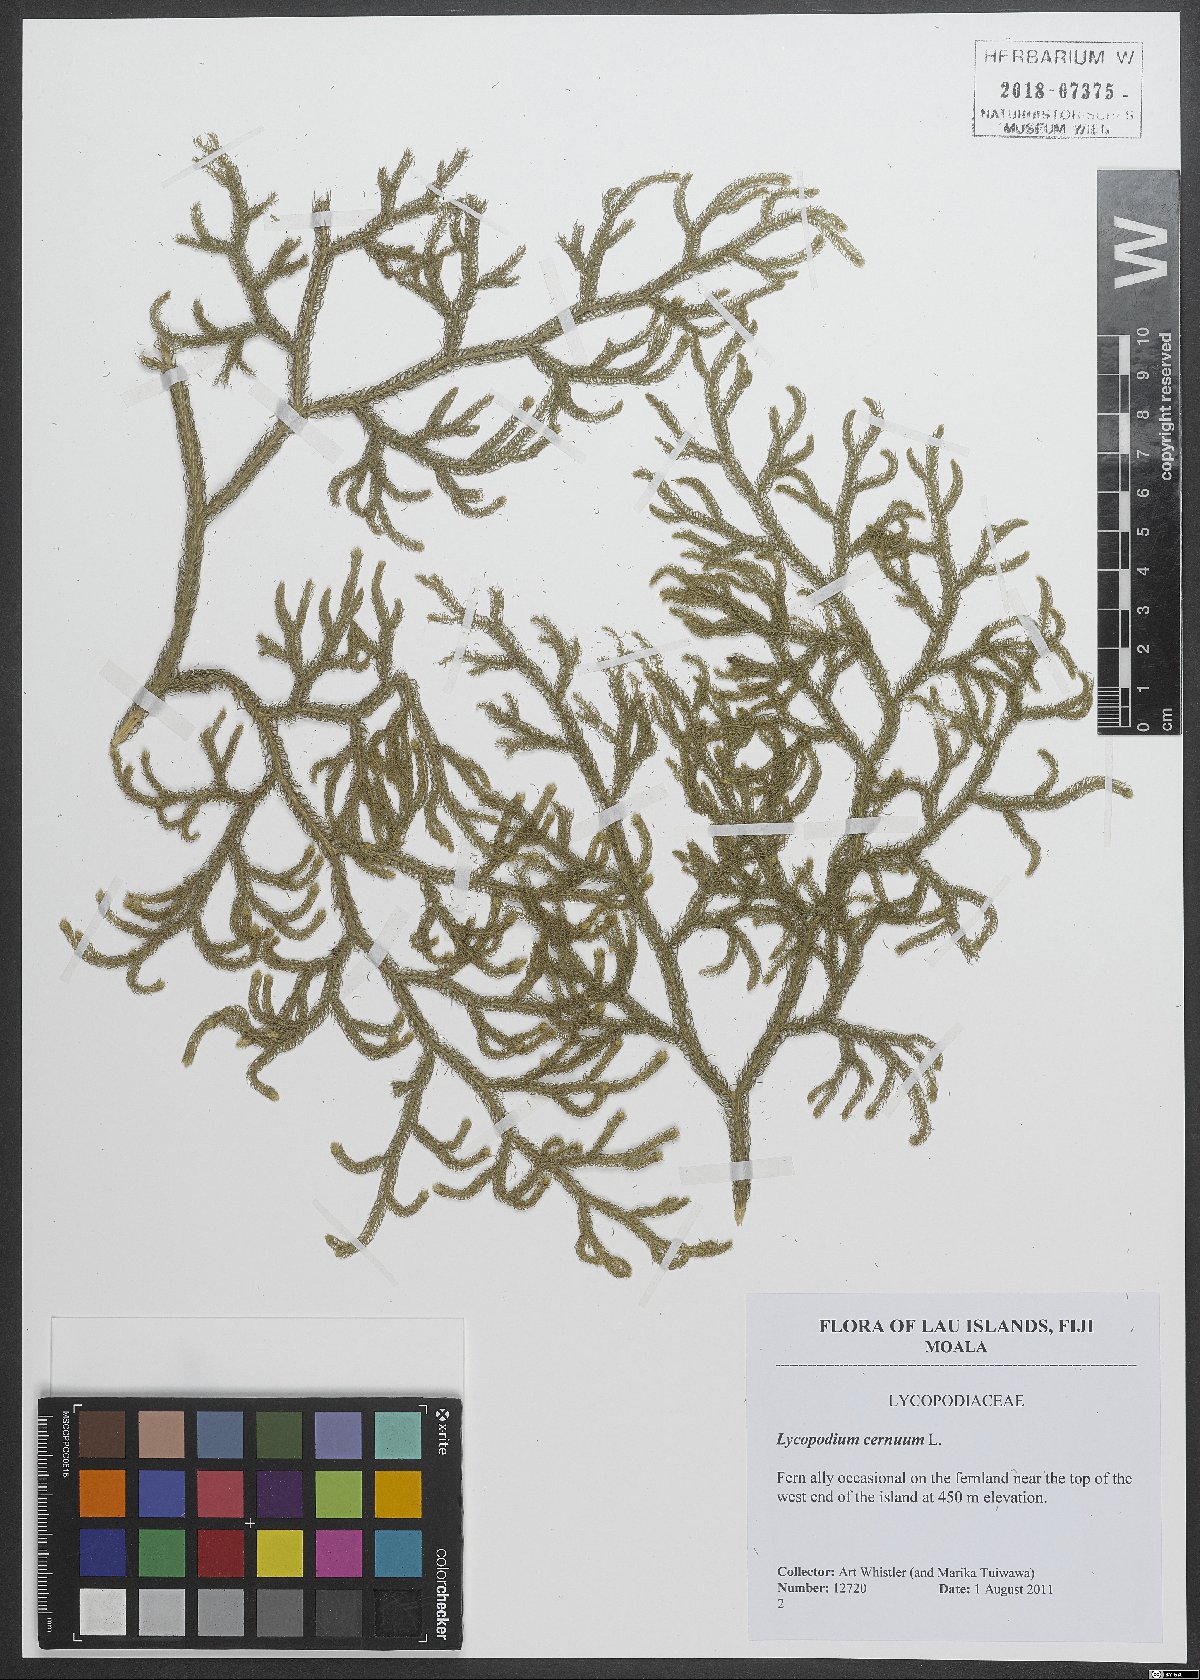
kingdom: Plantae
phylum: Tracheophyta
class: Lycopodiopsida
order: Lycopodiales
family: Lycopodiaceae
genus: Palhinhaea
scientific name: Palhinhaea cernua
